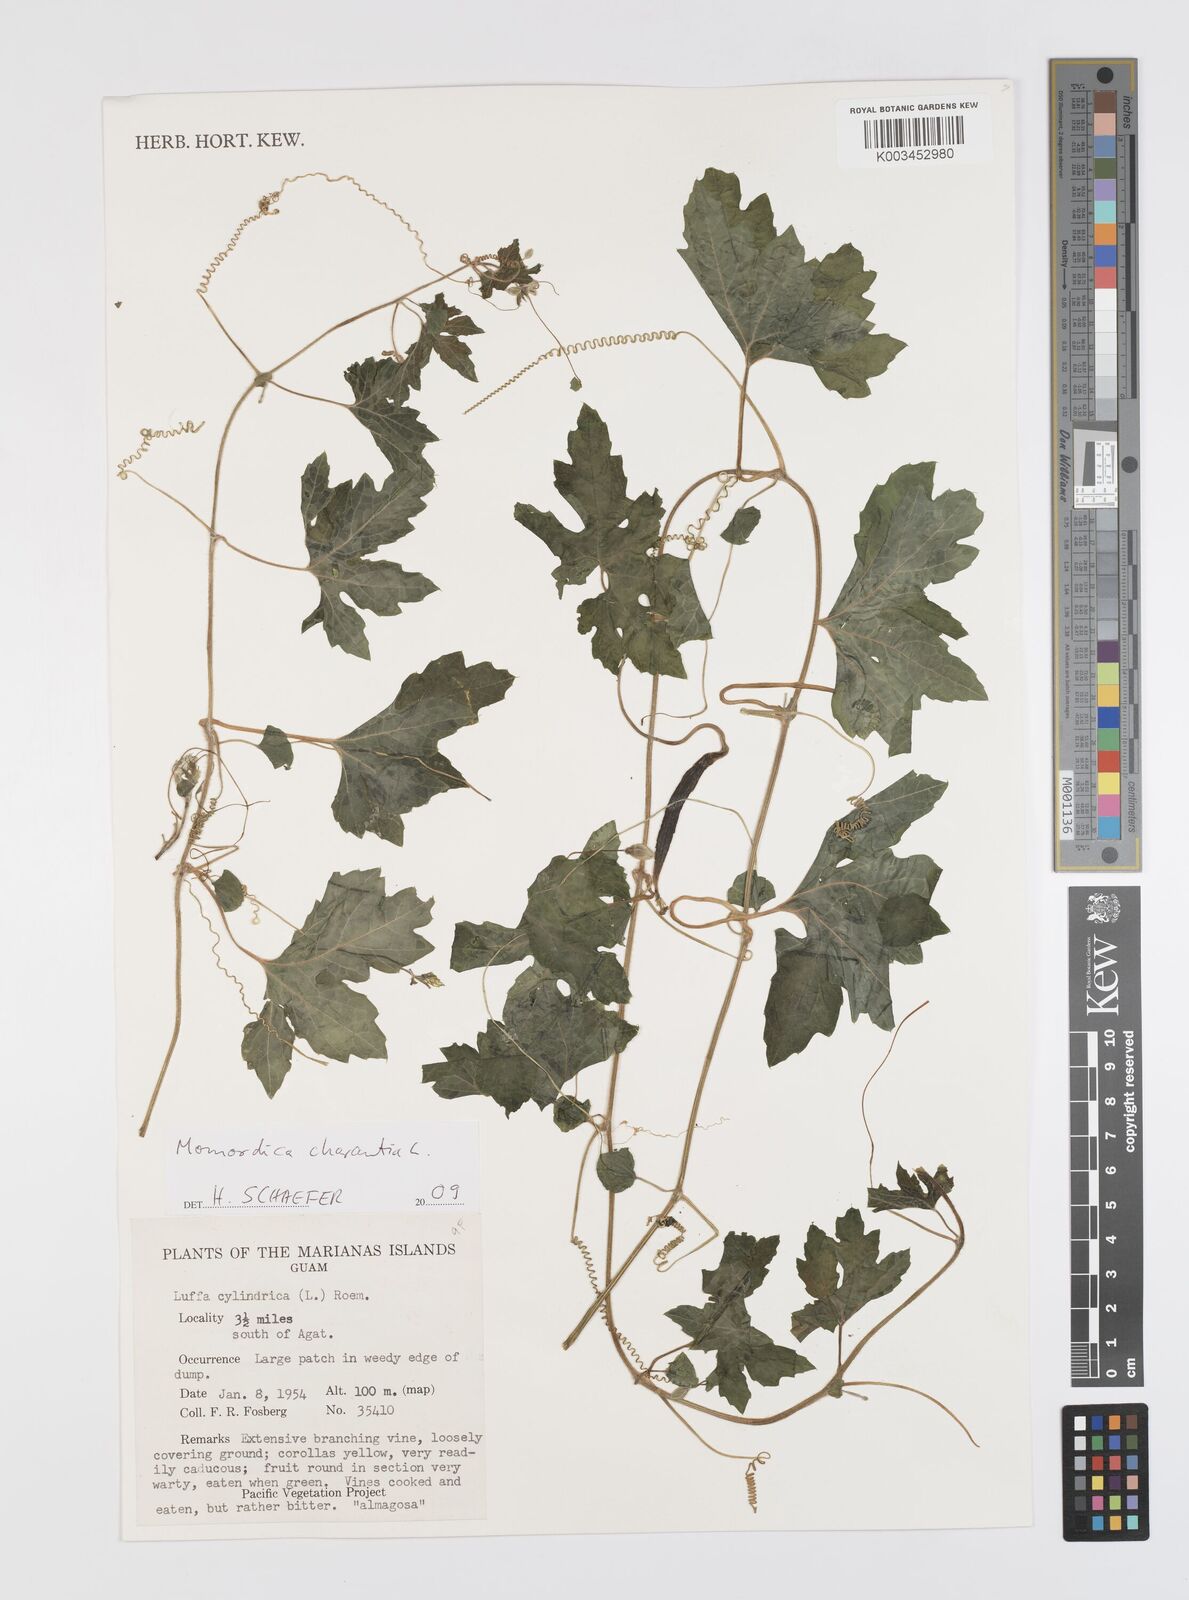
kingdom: Plantae
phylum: Tracheophyta
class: Magnoliopsida
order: Cucurbitales
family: Cucurbitaceae
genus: Momordica
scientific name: Momordica charantia
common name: Balsampear
